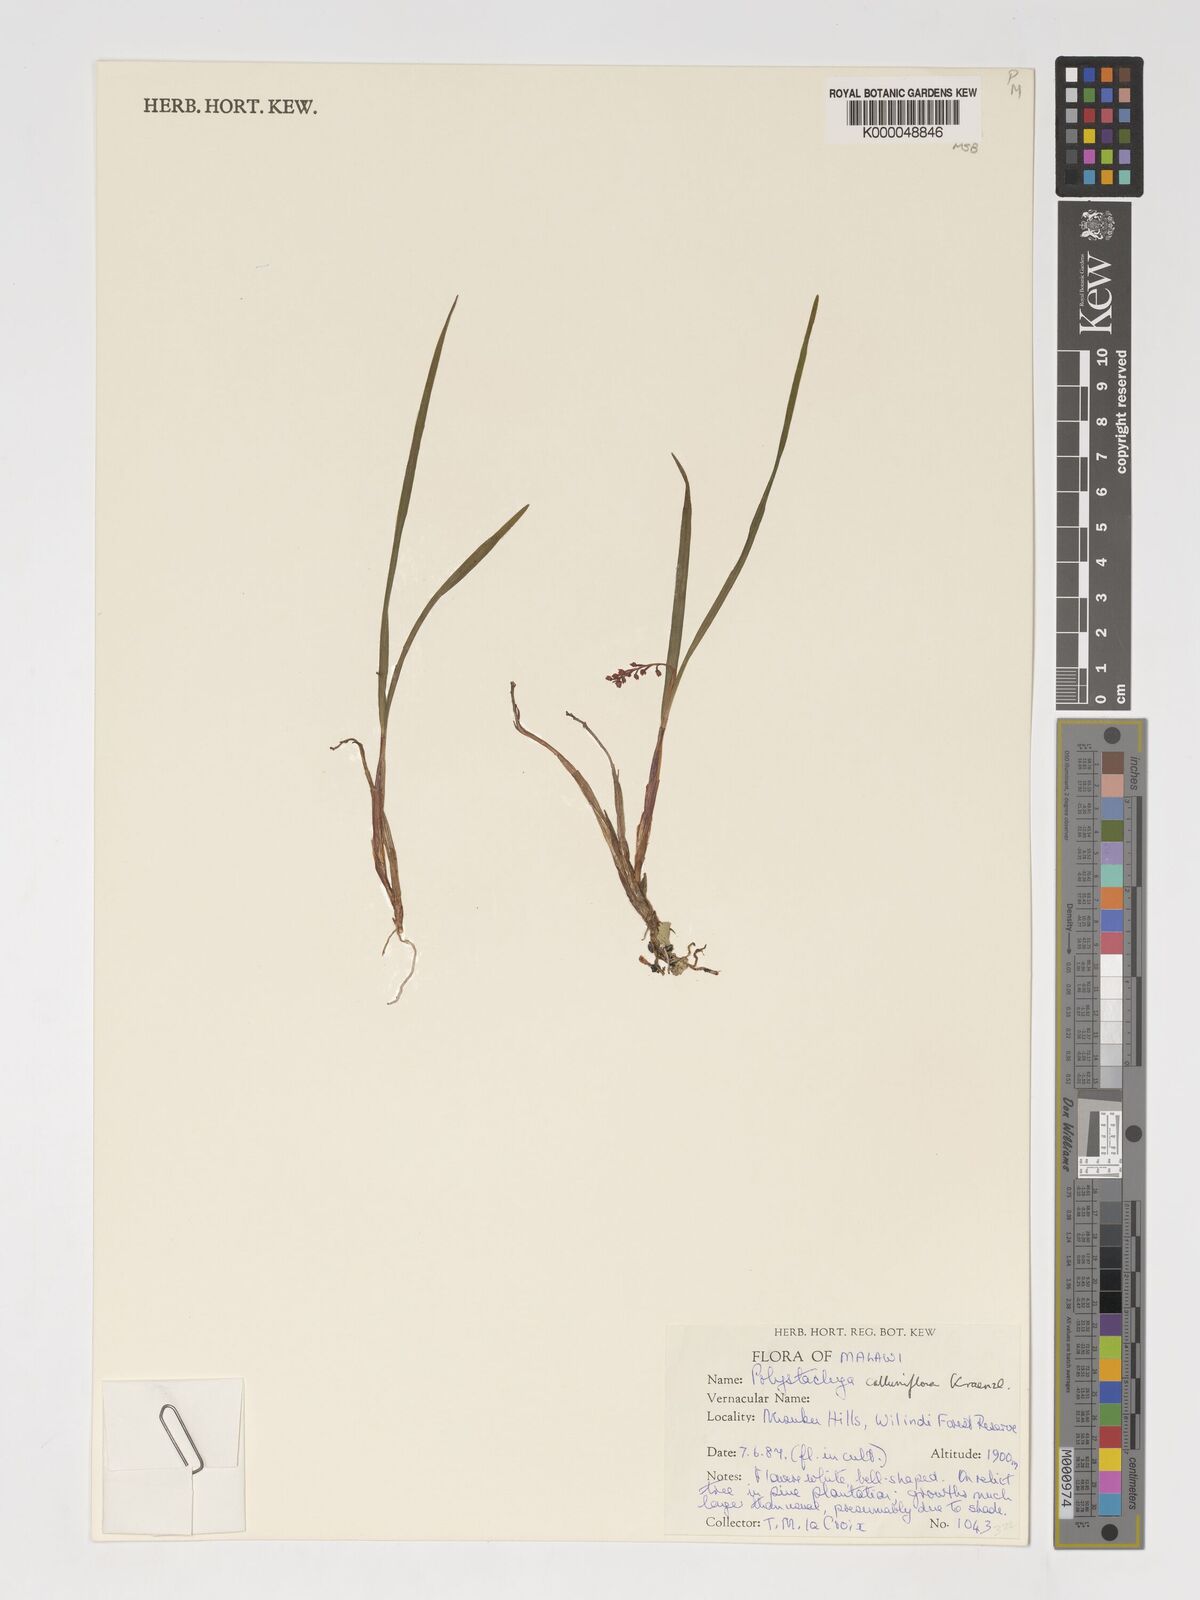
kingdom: Plantae
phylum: Tracheophyta
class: Liliopsida
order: Asparagales
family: Orchidaceae
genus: Polystachya
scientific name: Polystachya hologlossa
